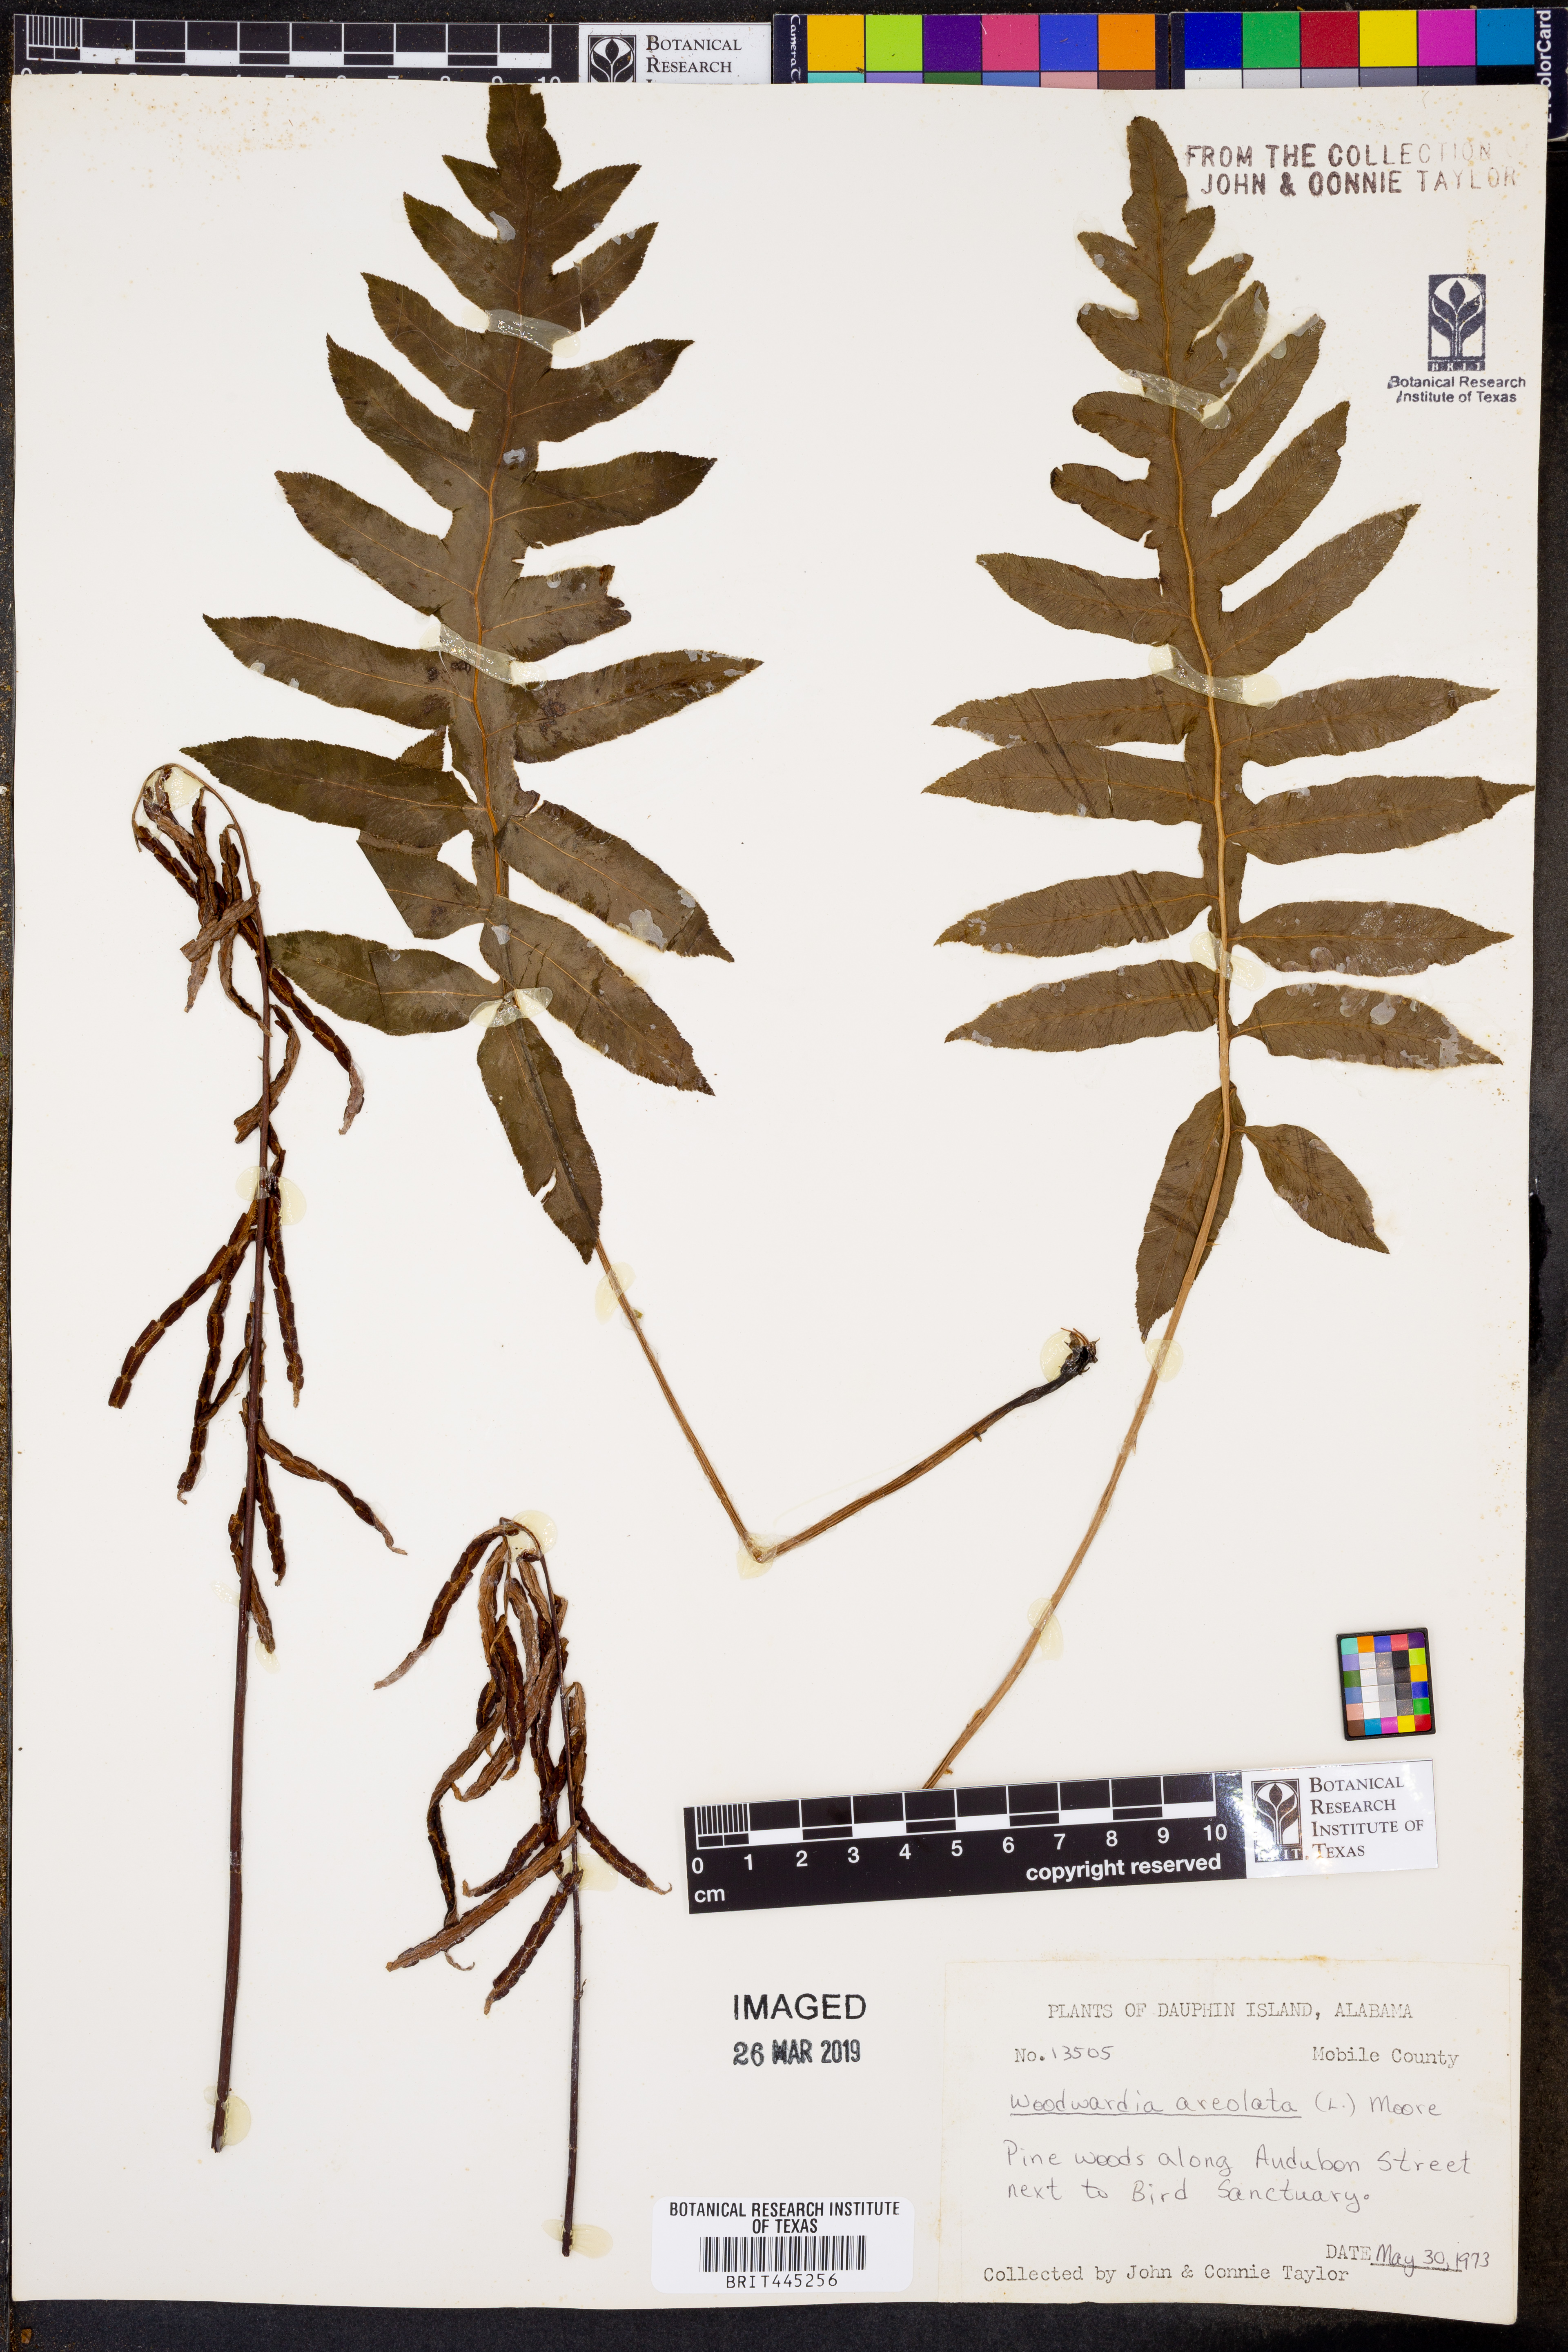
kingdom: Plantae
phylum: Tracheophyta
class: Polypodiopsida
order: Polypodiales
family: Blechnaceae
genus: Lorinseria
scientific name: Lorinseria areolata
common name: Dwarf chain fern
